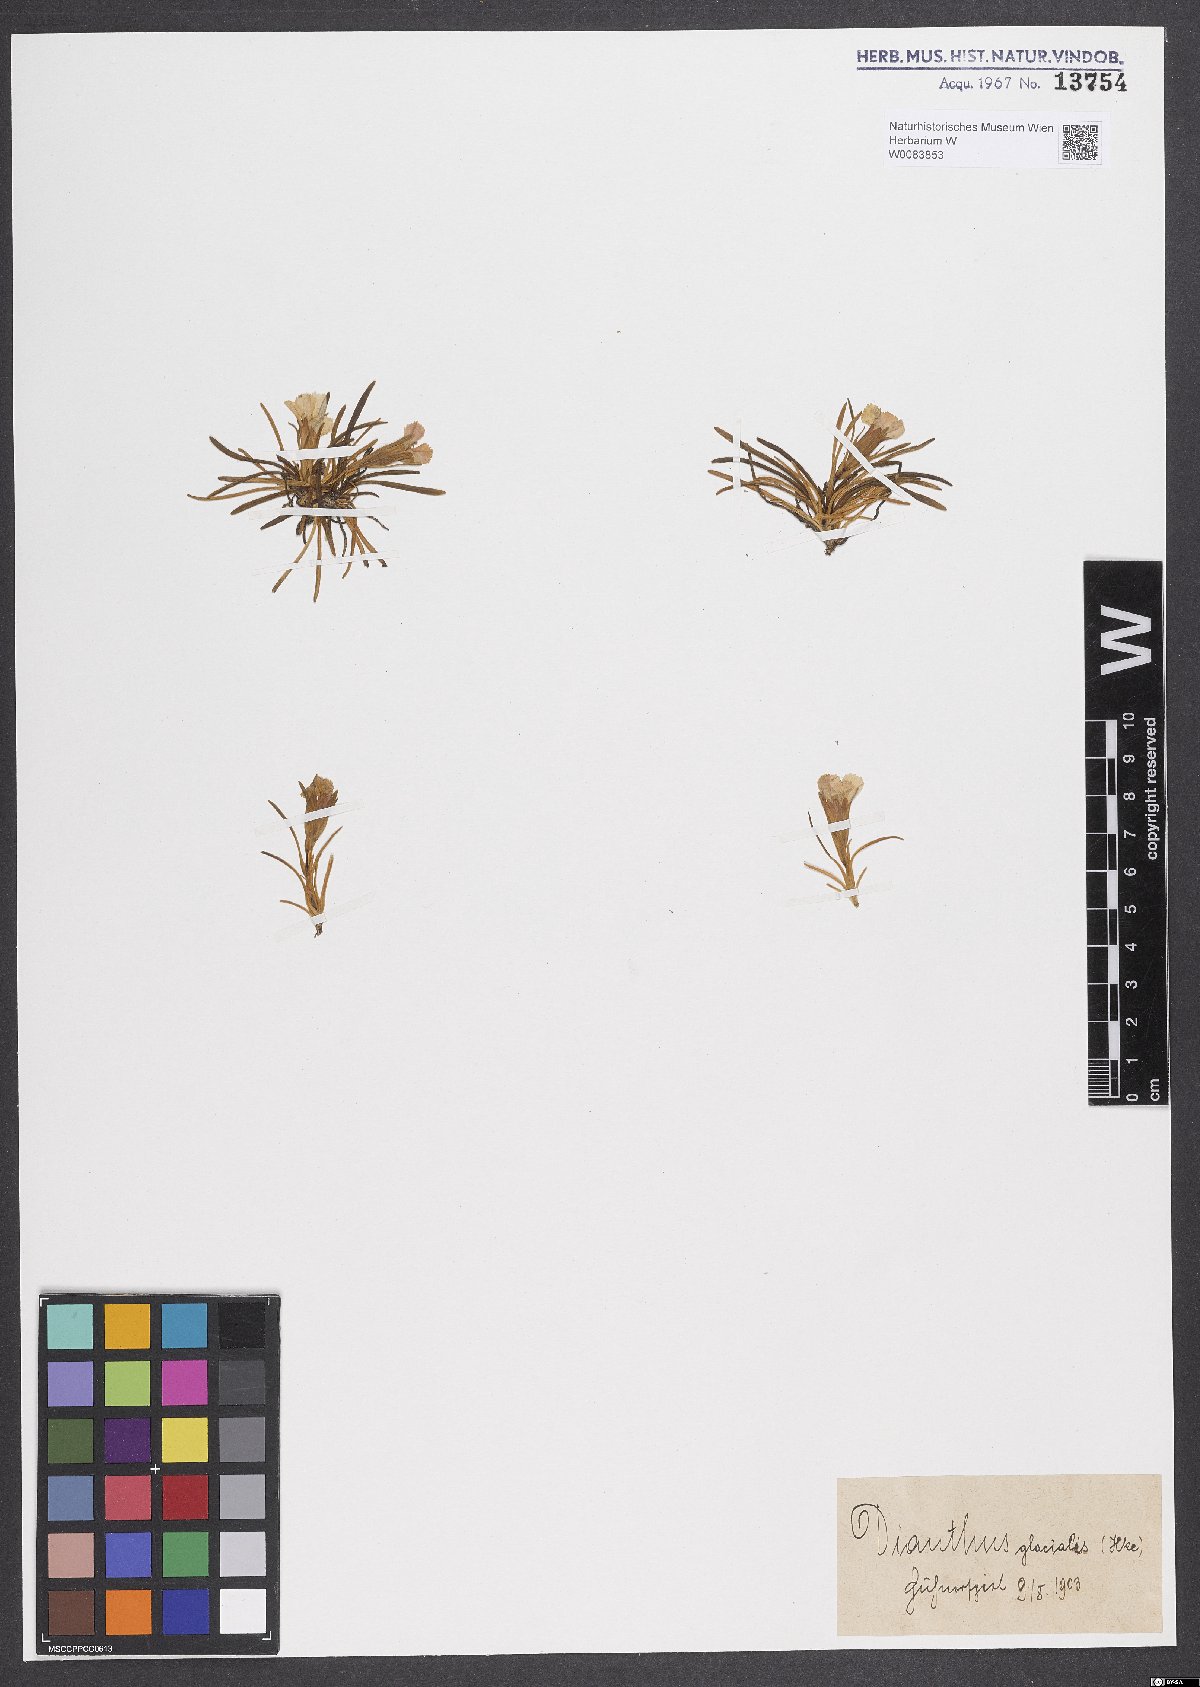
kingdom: Plantae
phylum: Tracheophyta
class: Magnoliopsida
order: Caryophyllales
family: Caryophyllaceae
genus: Dianthus
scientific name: Dianthus glacialis
